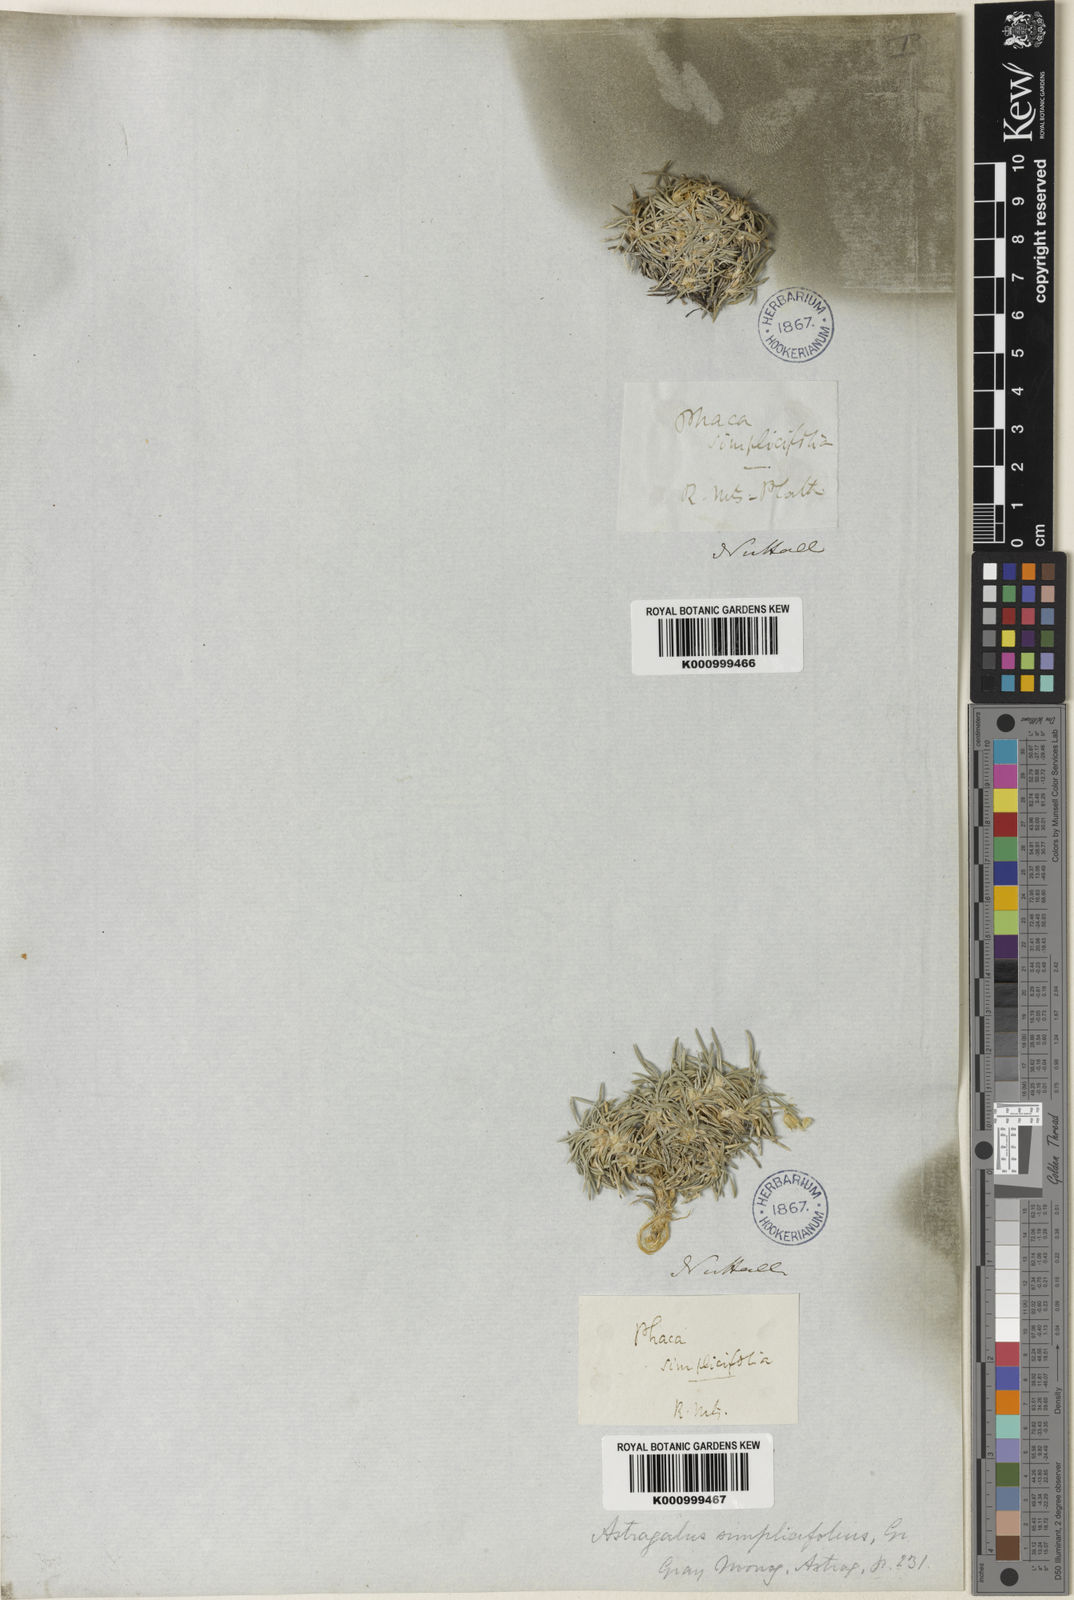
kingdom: Plantae
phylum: Tracheophyta
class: Magnoliopsida
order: Fabales
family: Fabaceae
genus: Astragalus
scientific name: Astragalus simplicifolius
